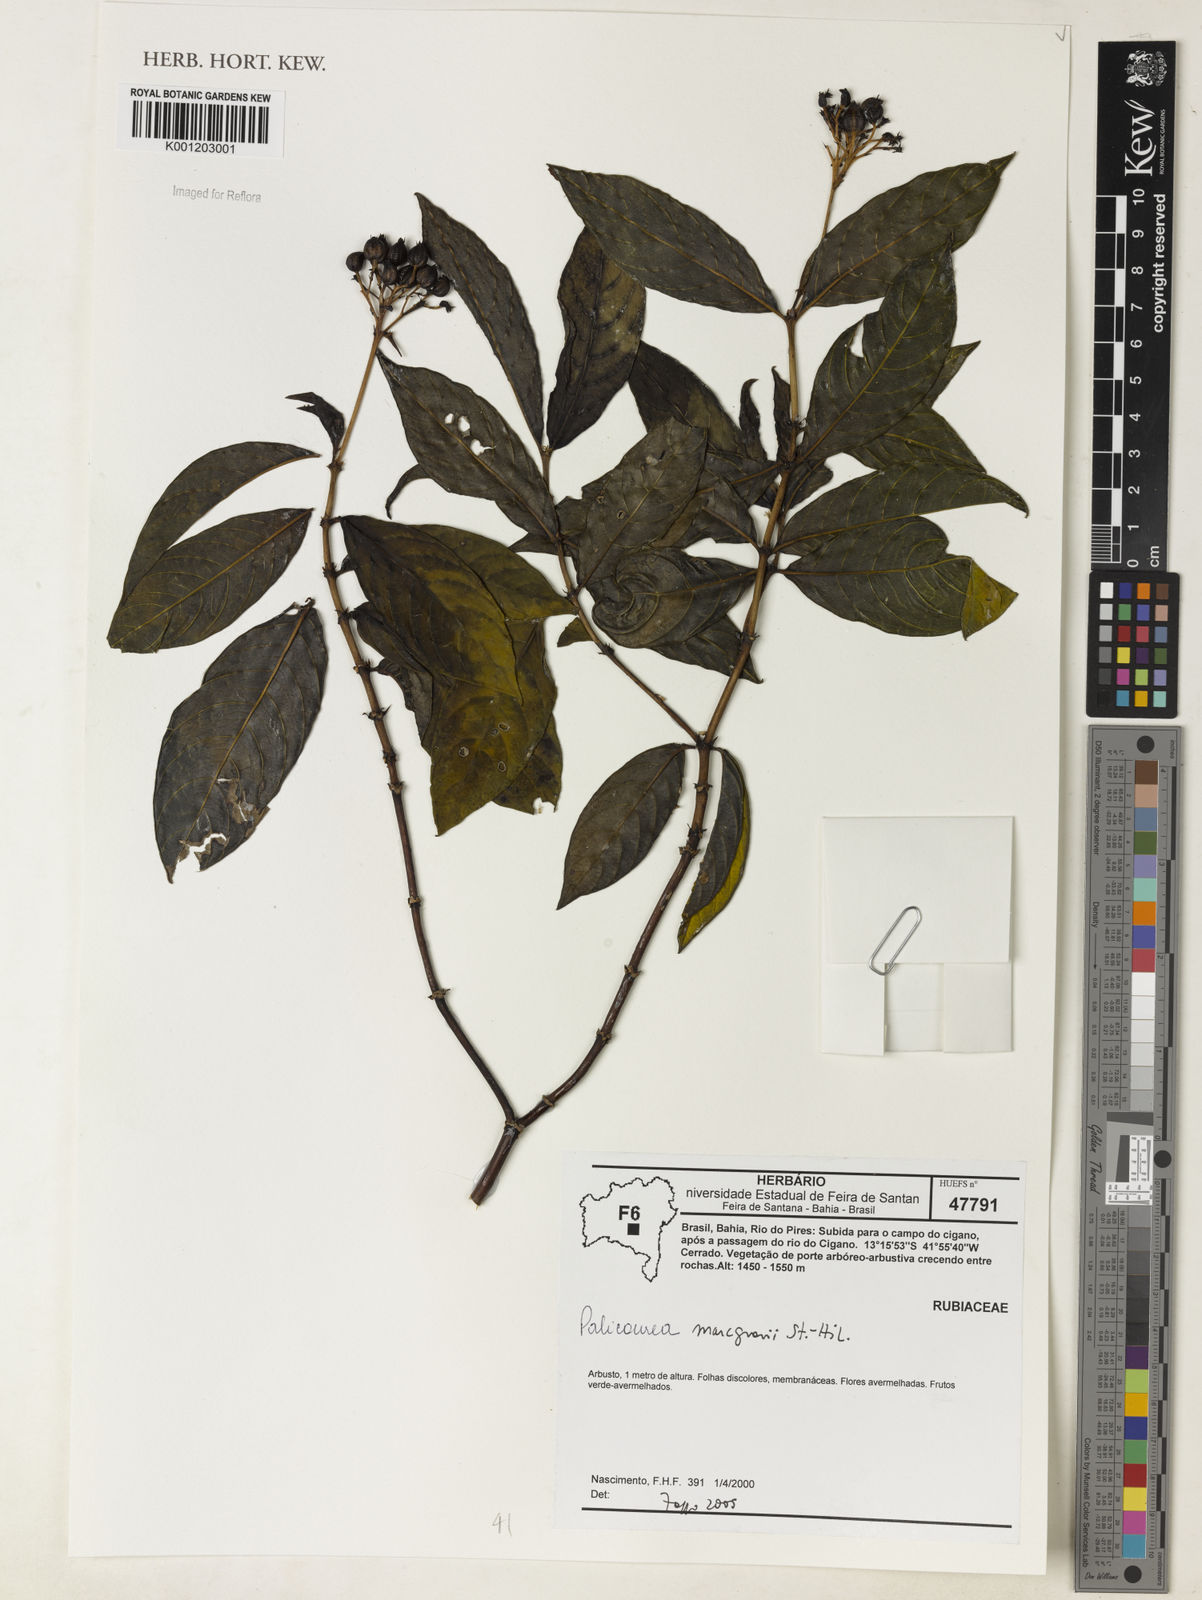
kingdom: Plantae
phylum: Tracheophyta
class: Magnoliopsida
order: Gentianales
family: Rubiaceae
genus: Palicourea
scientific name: Palicourea marcgravii
